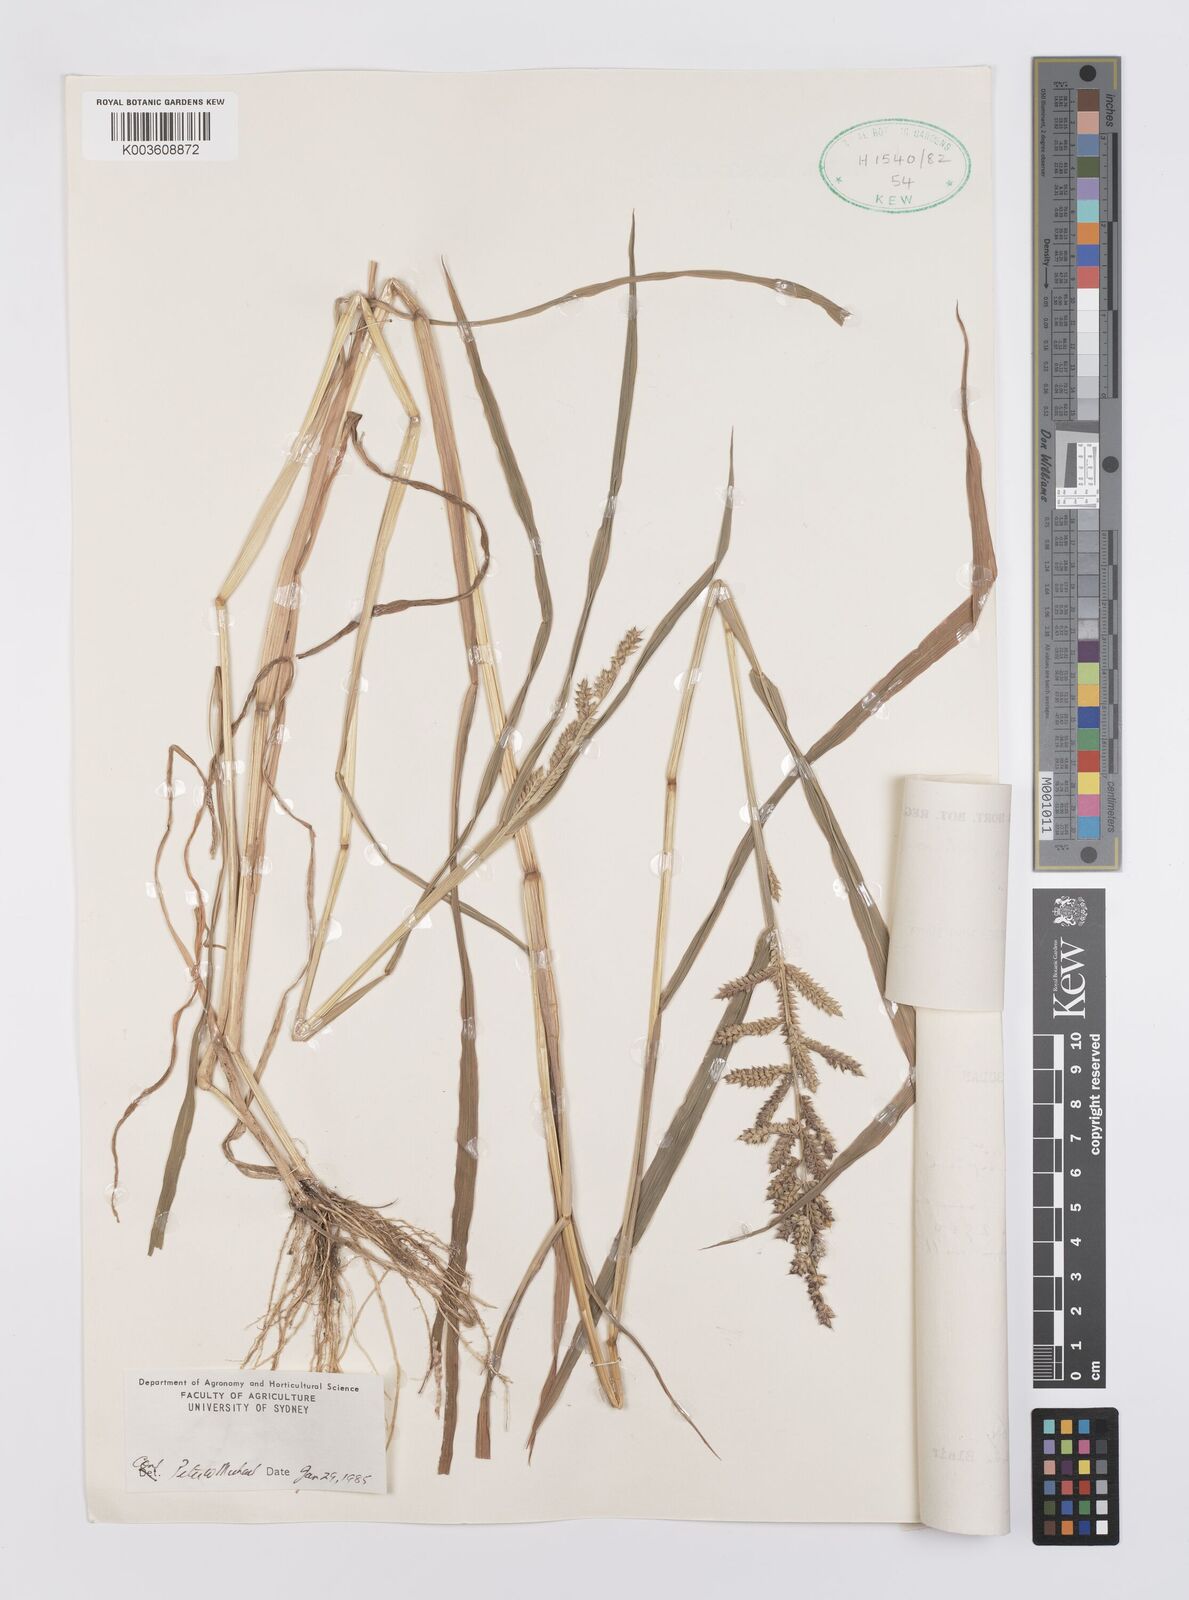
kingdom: Plantae
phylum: Tracheophyta
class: Liliopsida
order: Poales
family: Poaceae
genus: Echinochloa
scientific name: Echinochloa colonum
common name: Jungle rice
